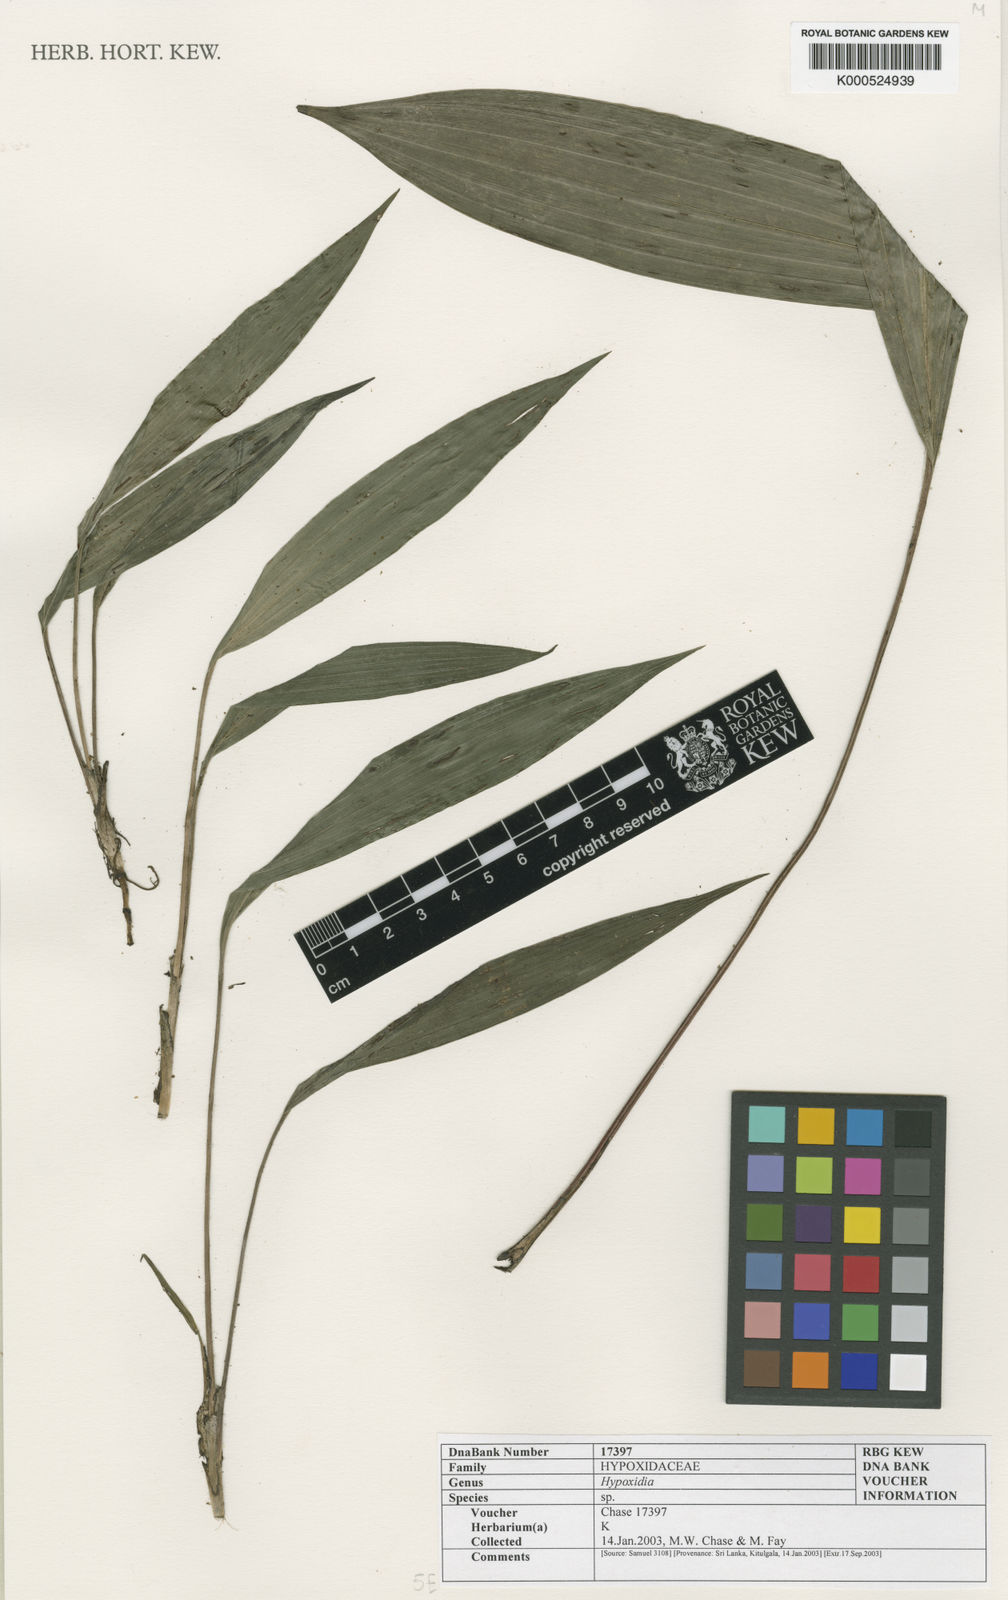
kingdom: Plantae
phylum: Tracheophyta
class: Liliopsida
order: Asparagales
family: Hypoxidaceae
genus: Curculigo
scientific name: Curculigo orchioides
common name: Golden eye-grass
